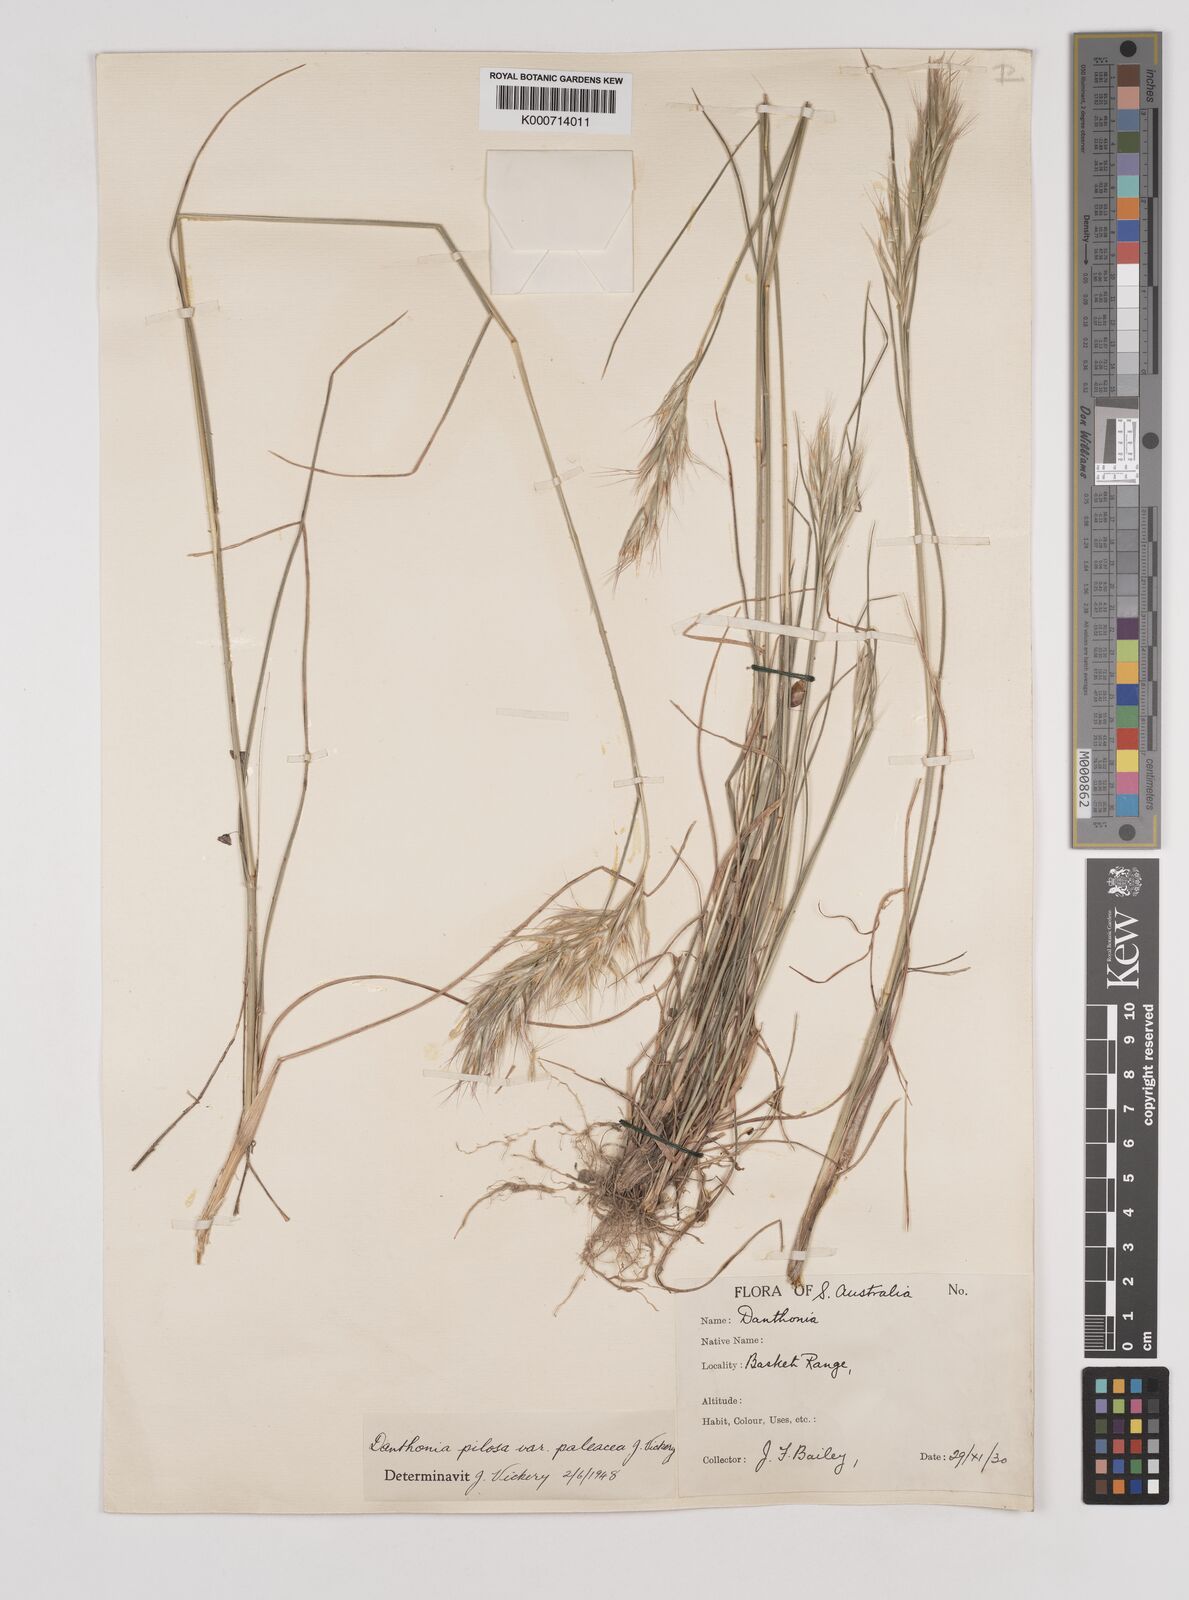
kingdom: Plantae
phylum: Tracheophyta
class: Liliopsida
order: Poales
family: Poaceae
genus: Rytidosperma
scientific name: Rytidosperma pilosum
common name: Hairy wallaby grass
